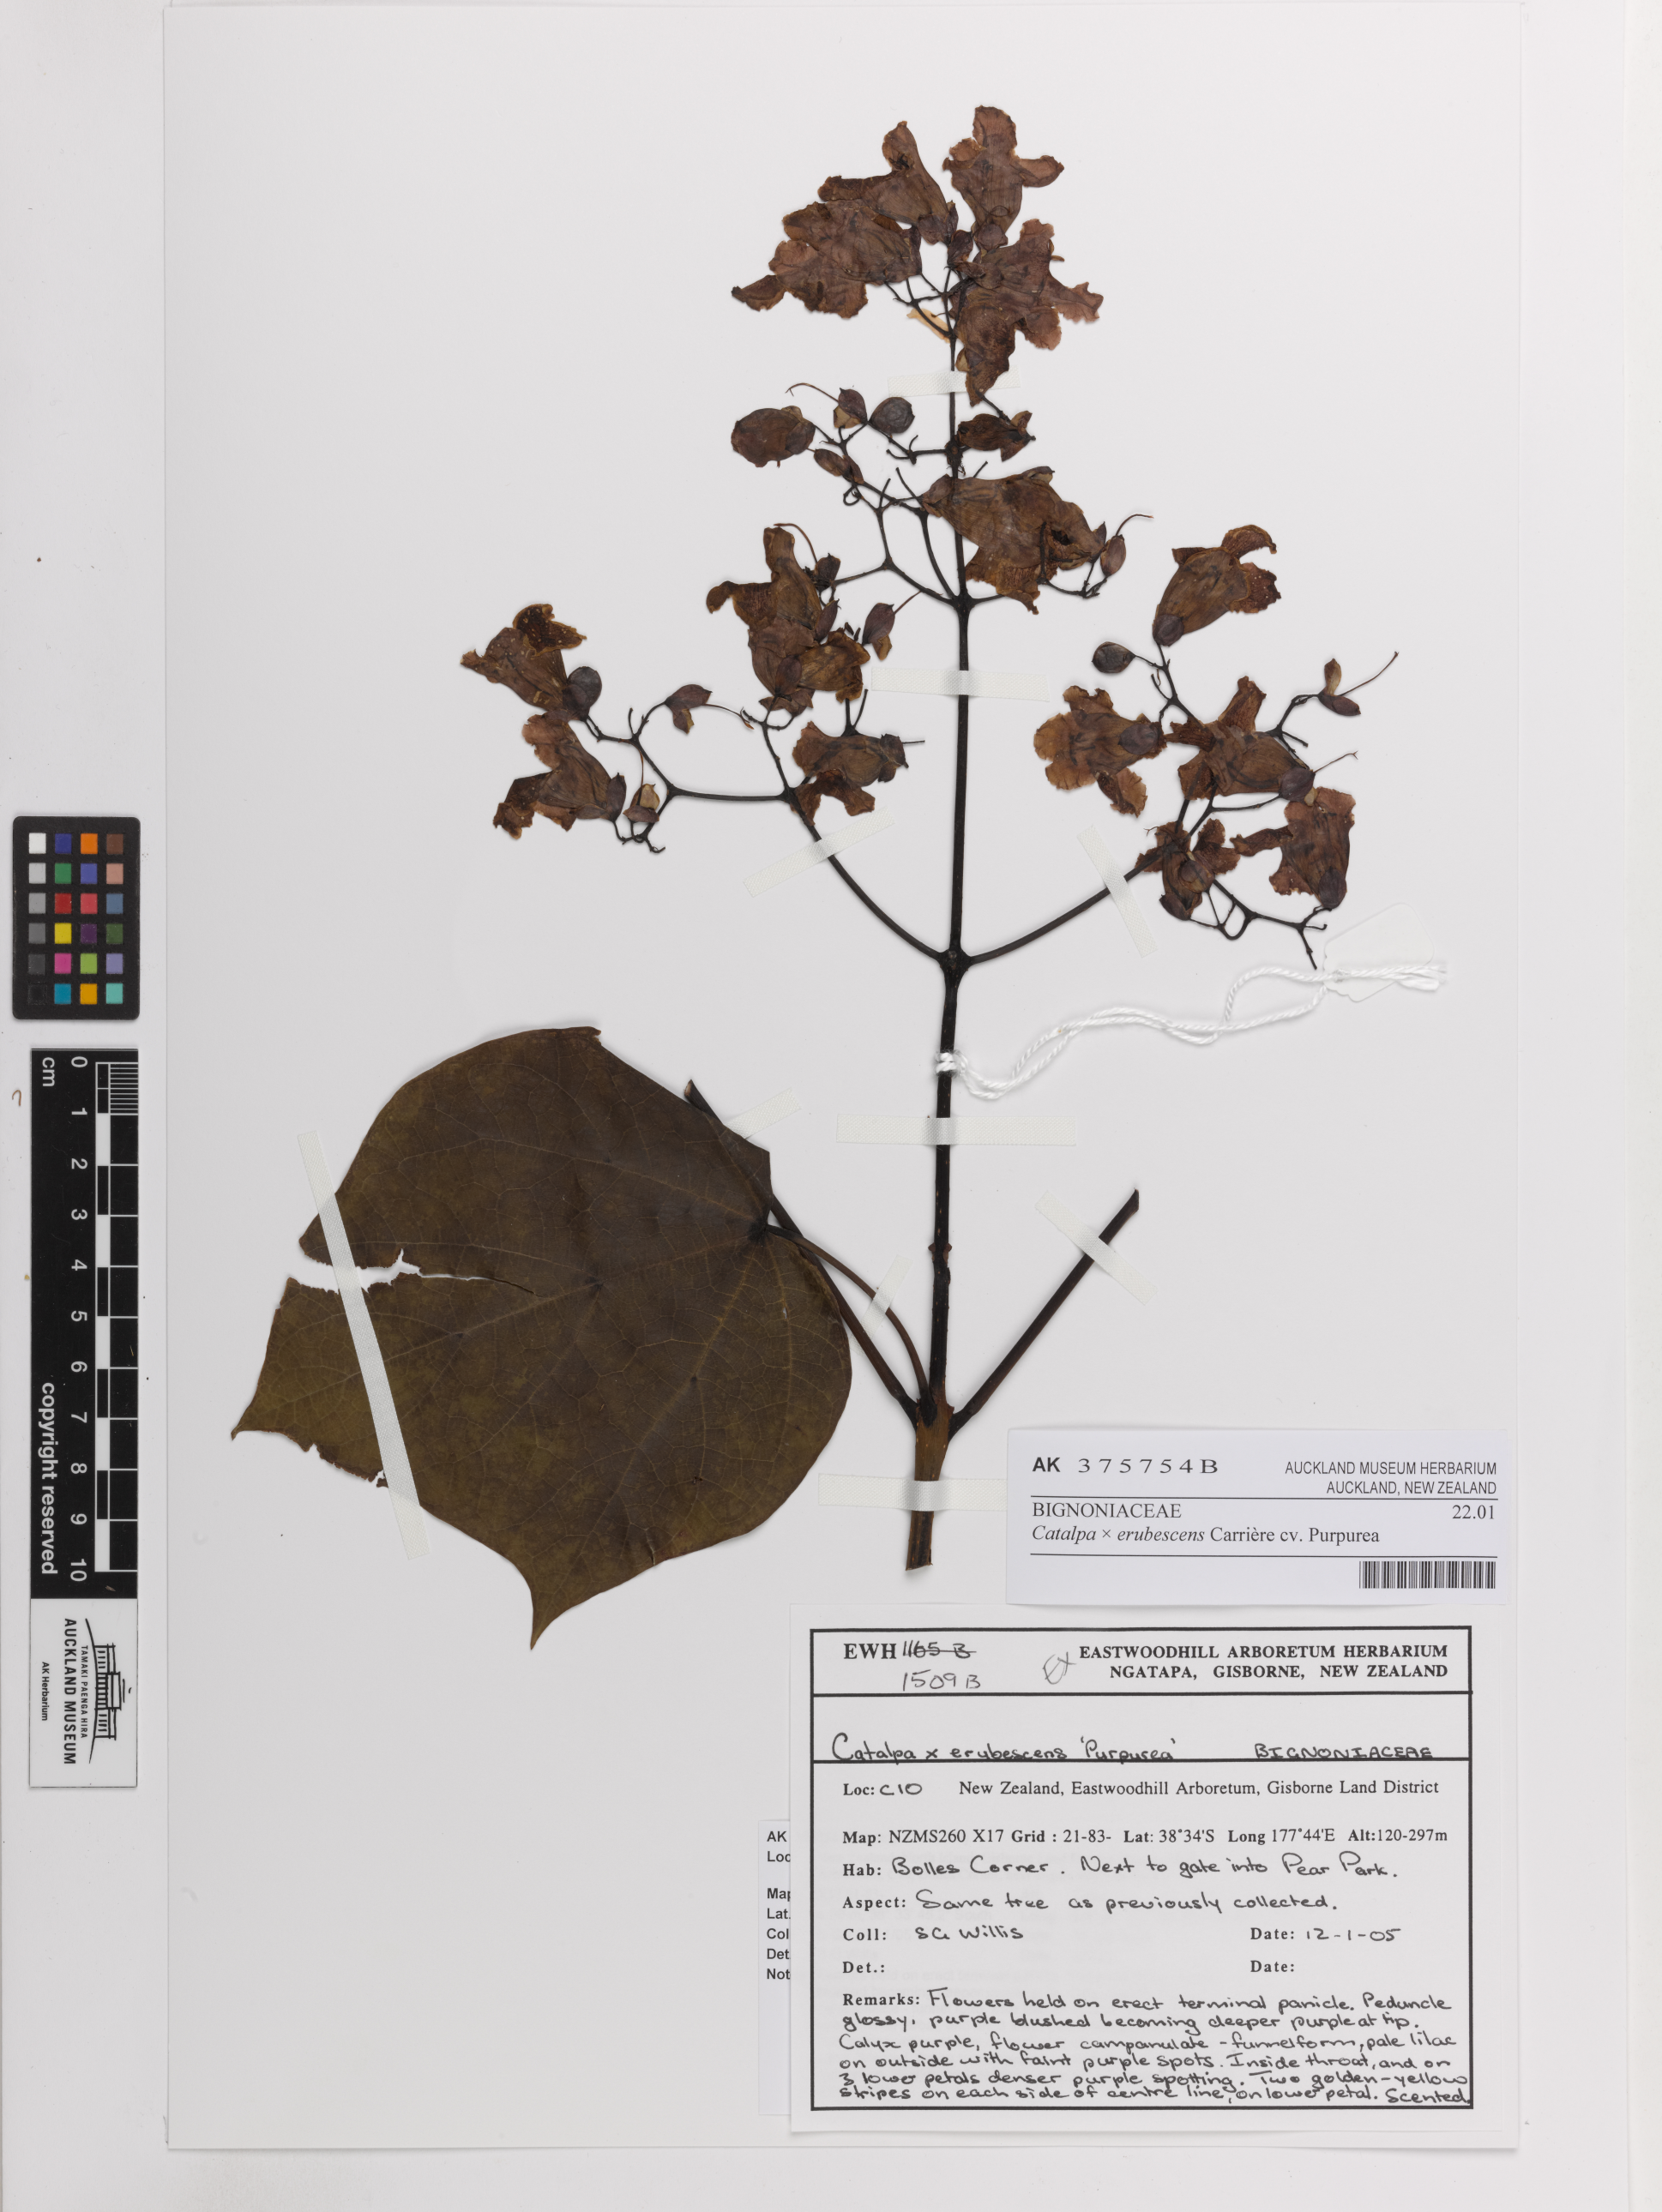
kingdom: Plantae
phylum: Tracheophyta
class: Magnoliopsida
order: Lamiales
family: Bignoniaceae
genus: Catalpa
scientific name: Catalpa erubescens
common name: Hybrid catalpa
